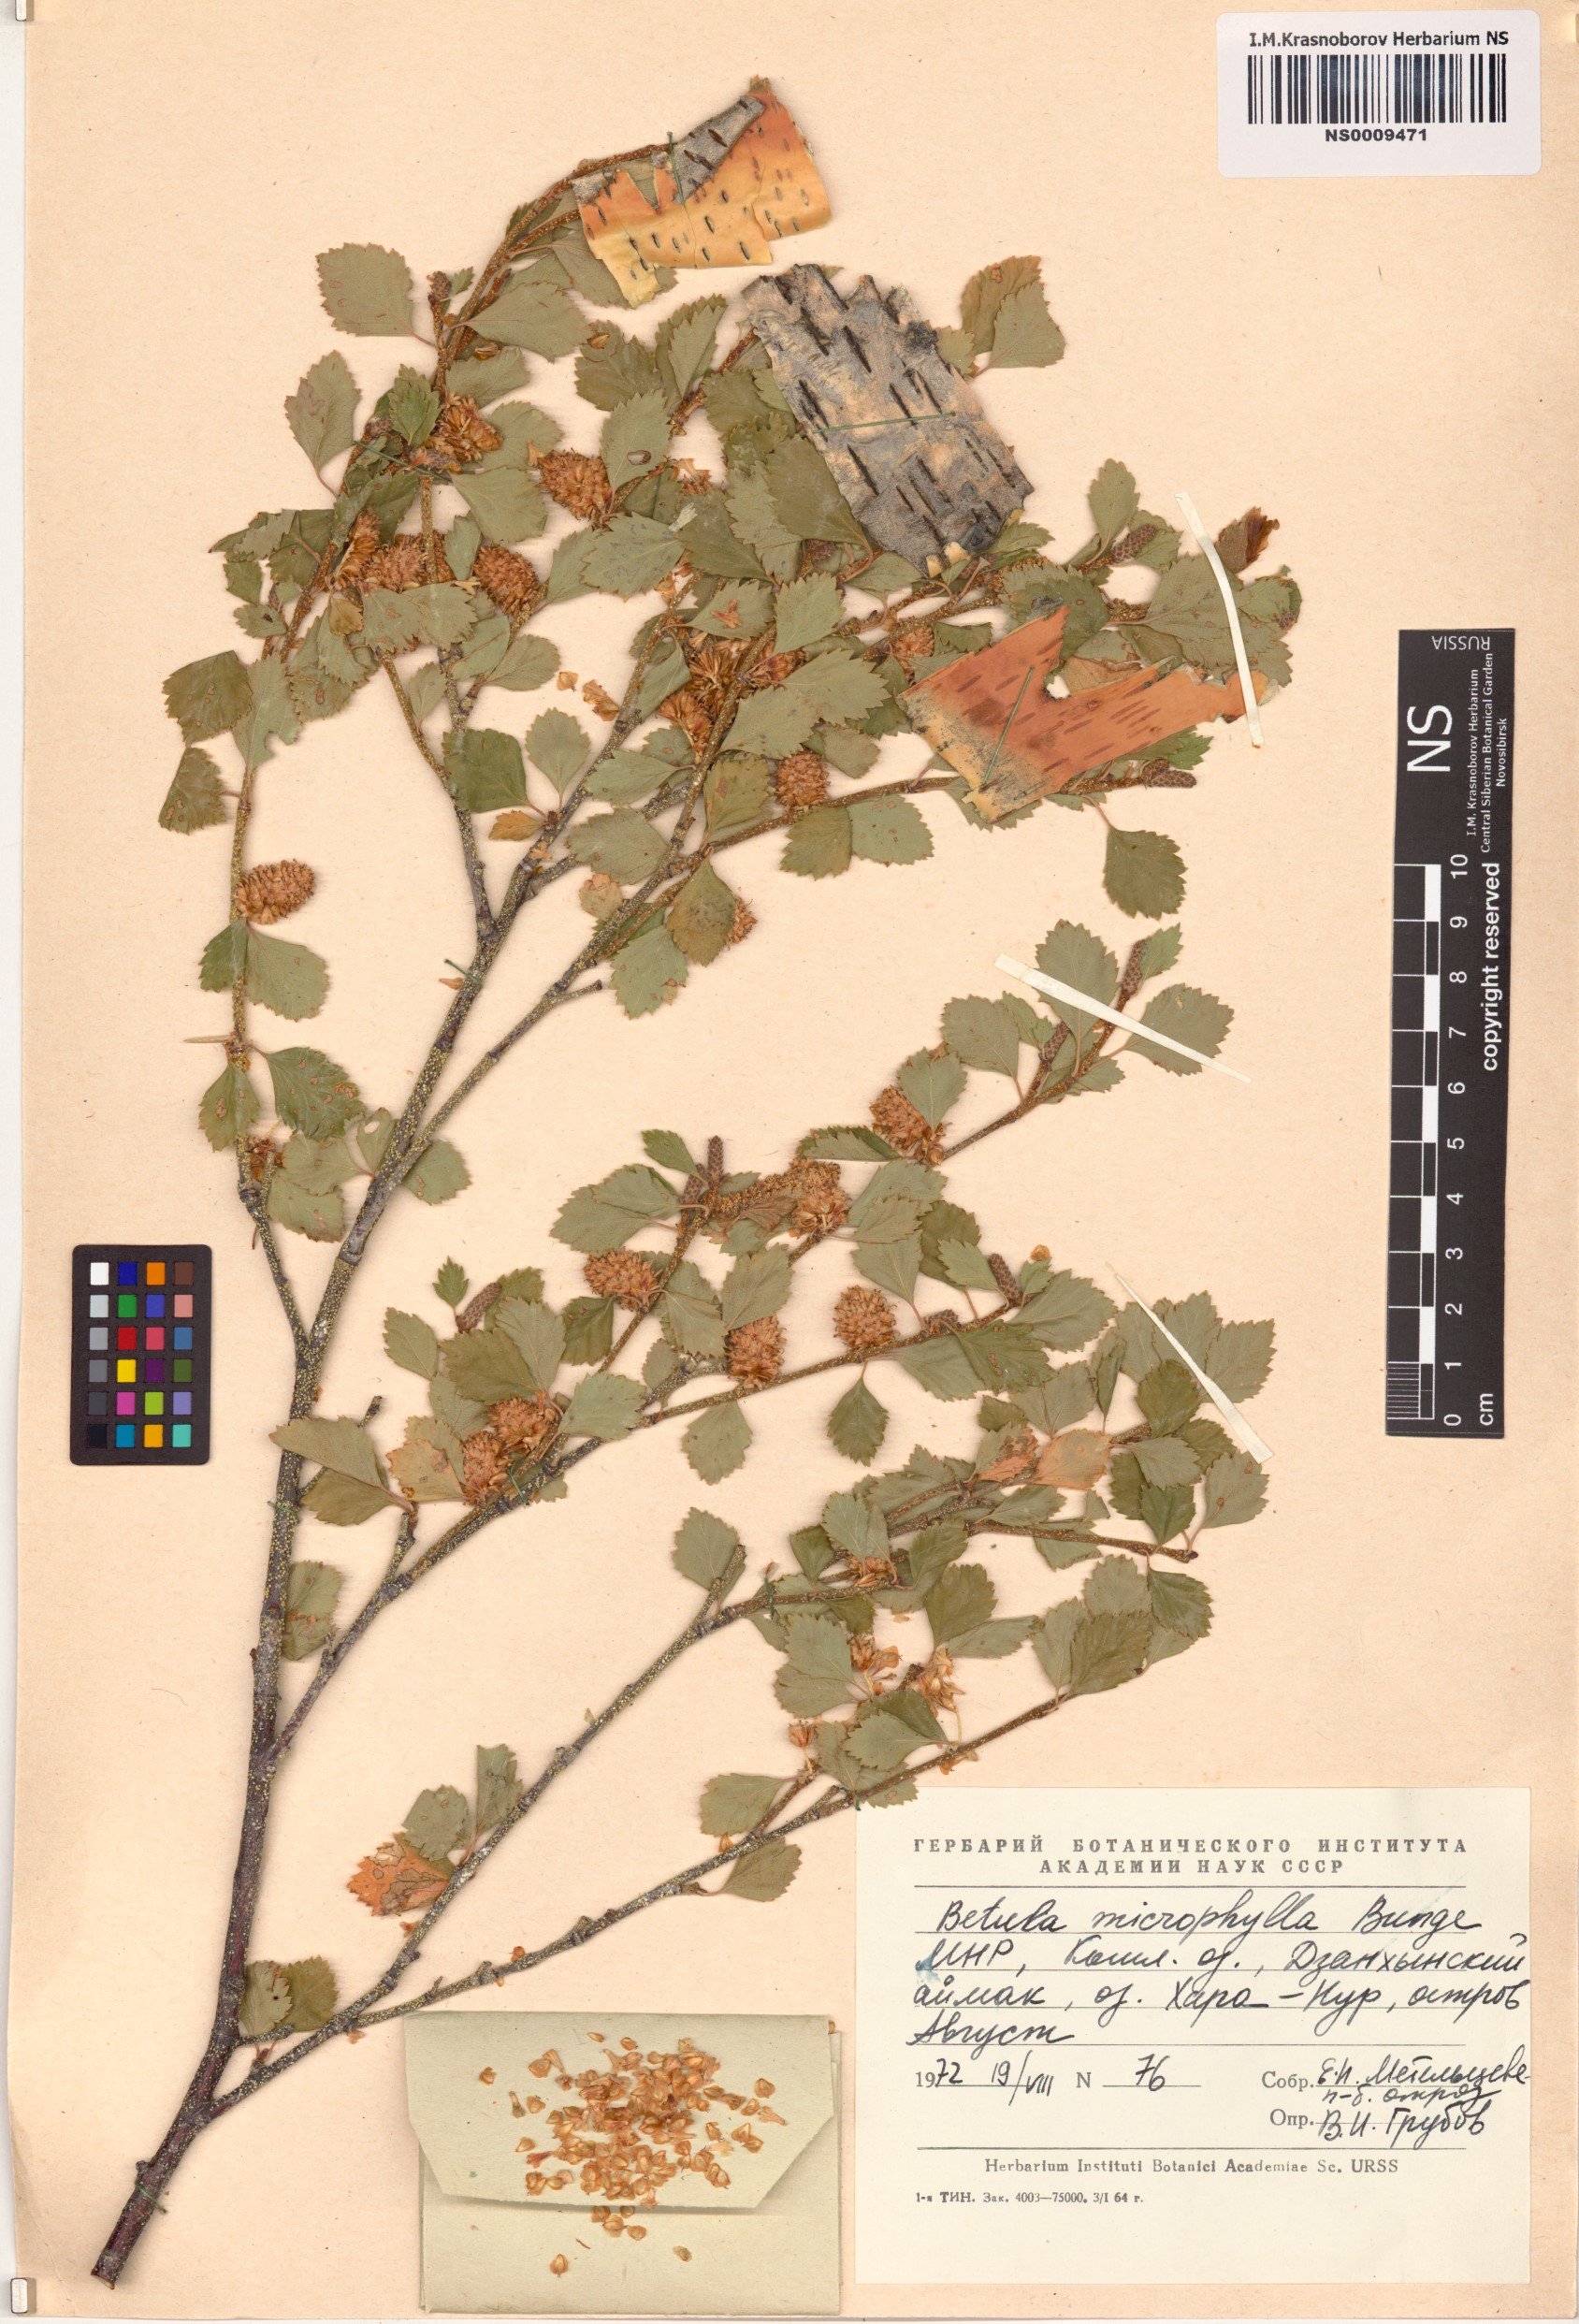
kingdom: Plantae
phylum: Tracheophyta
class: Magnoliopsida
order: Fagales
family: Betulaceae
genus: Betula
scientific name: Betula microphylla
